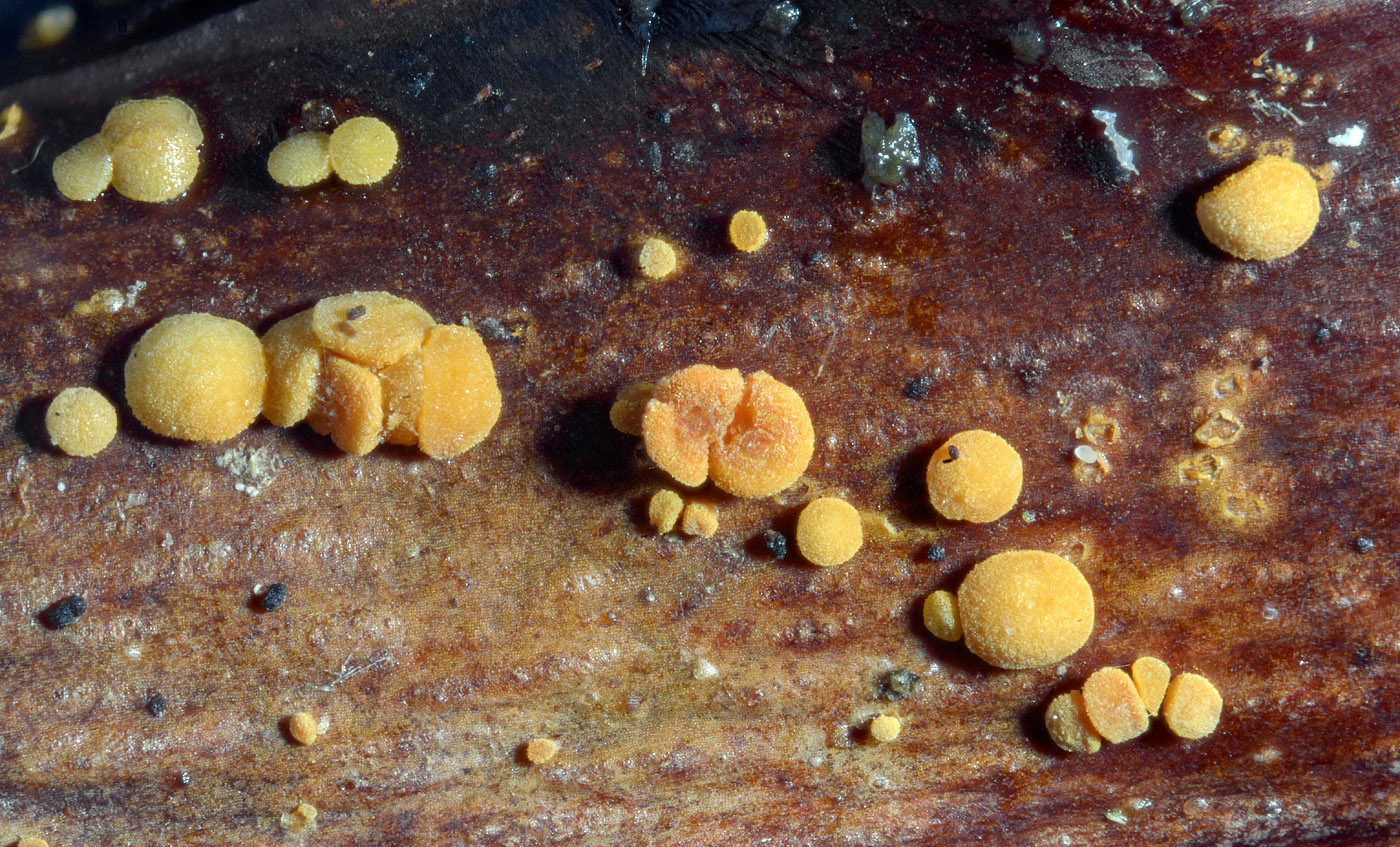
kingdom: Fungi
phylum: Ascomycota
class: Leotiomycetes
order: Helotiales
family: Dermateaceae
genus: Pezicula
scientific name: Pezicula rubi
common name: brombær-klyngeskive
